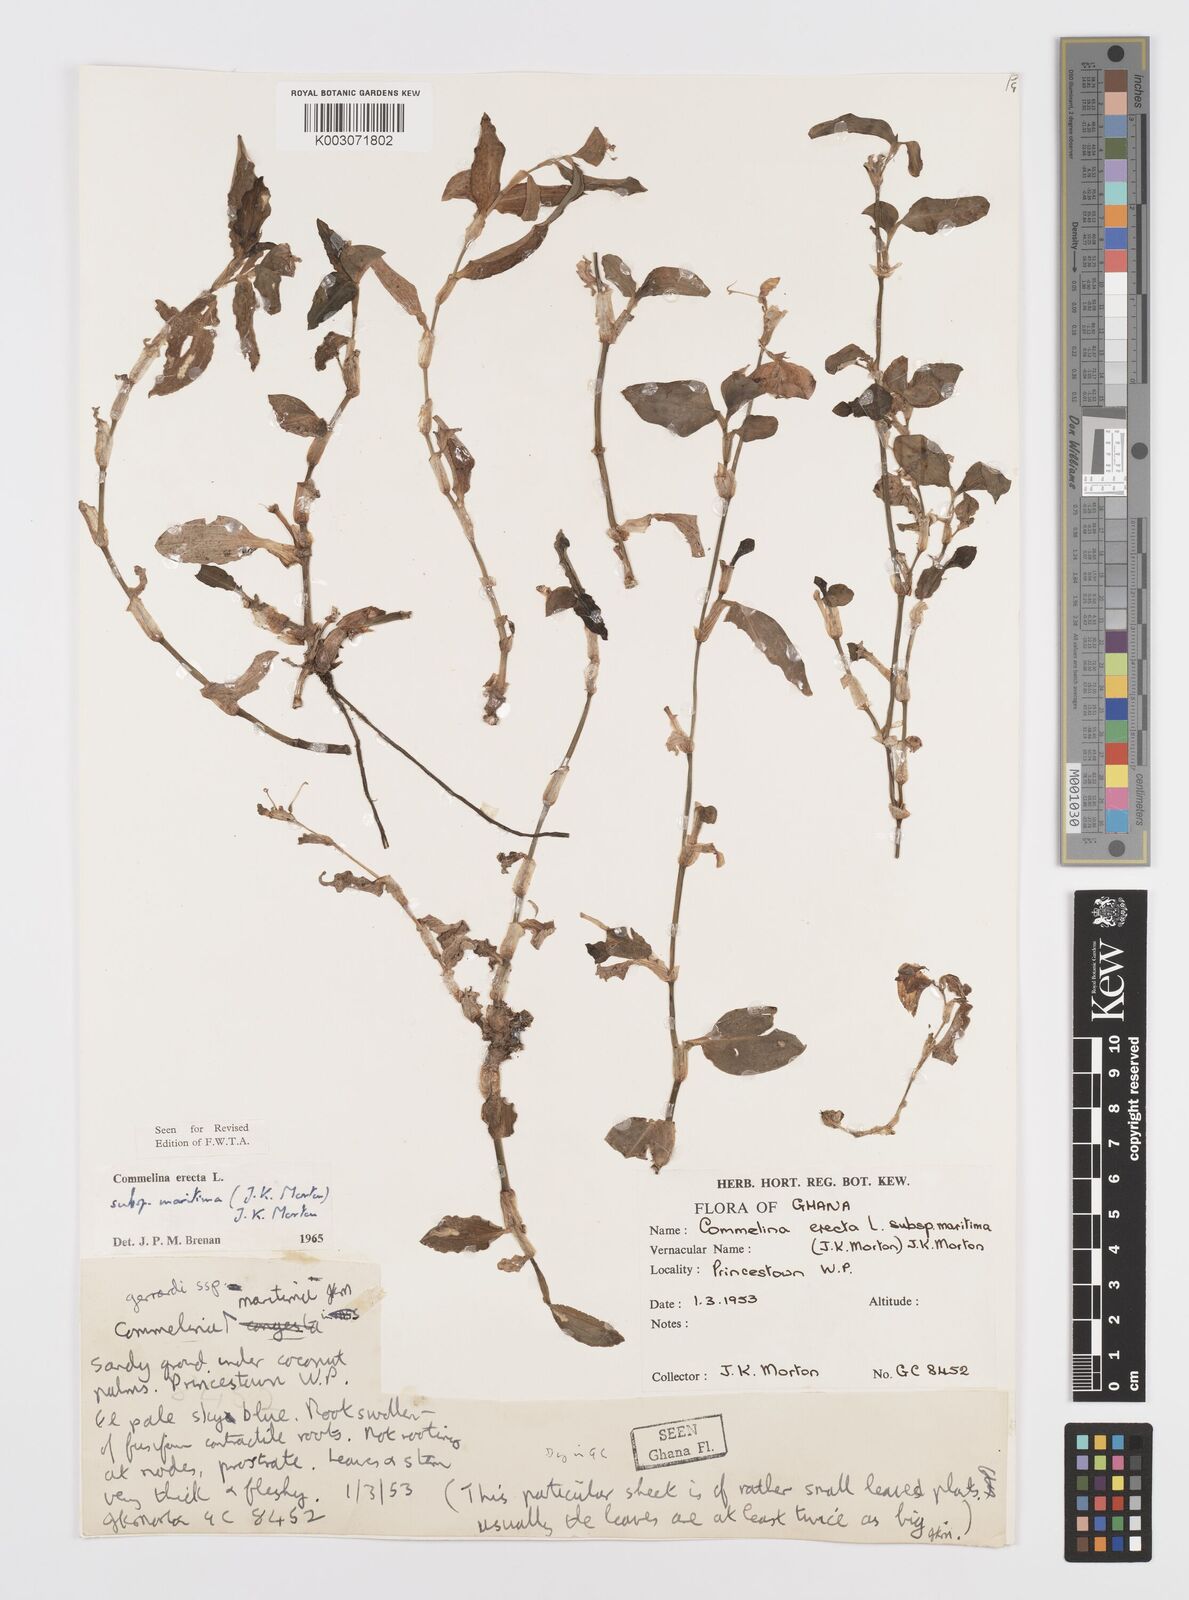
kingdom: Plantae
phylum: Tracheophyta
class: Liliopsida
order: Commelinales
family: Commelinaceae
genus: Commelina
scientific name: Commelina erecta
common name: Blousel blommetjie
